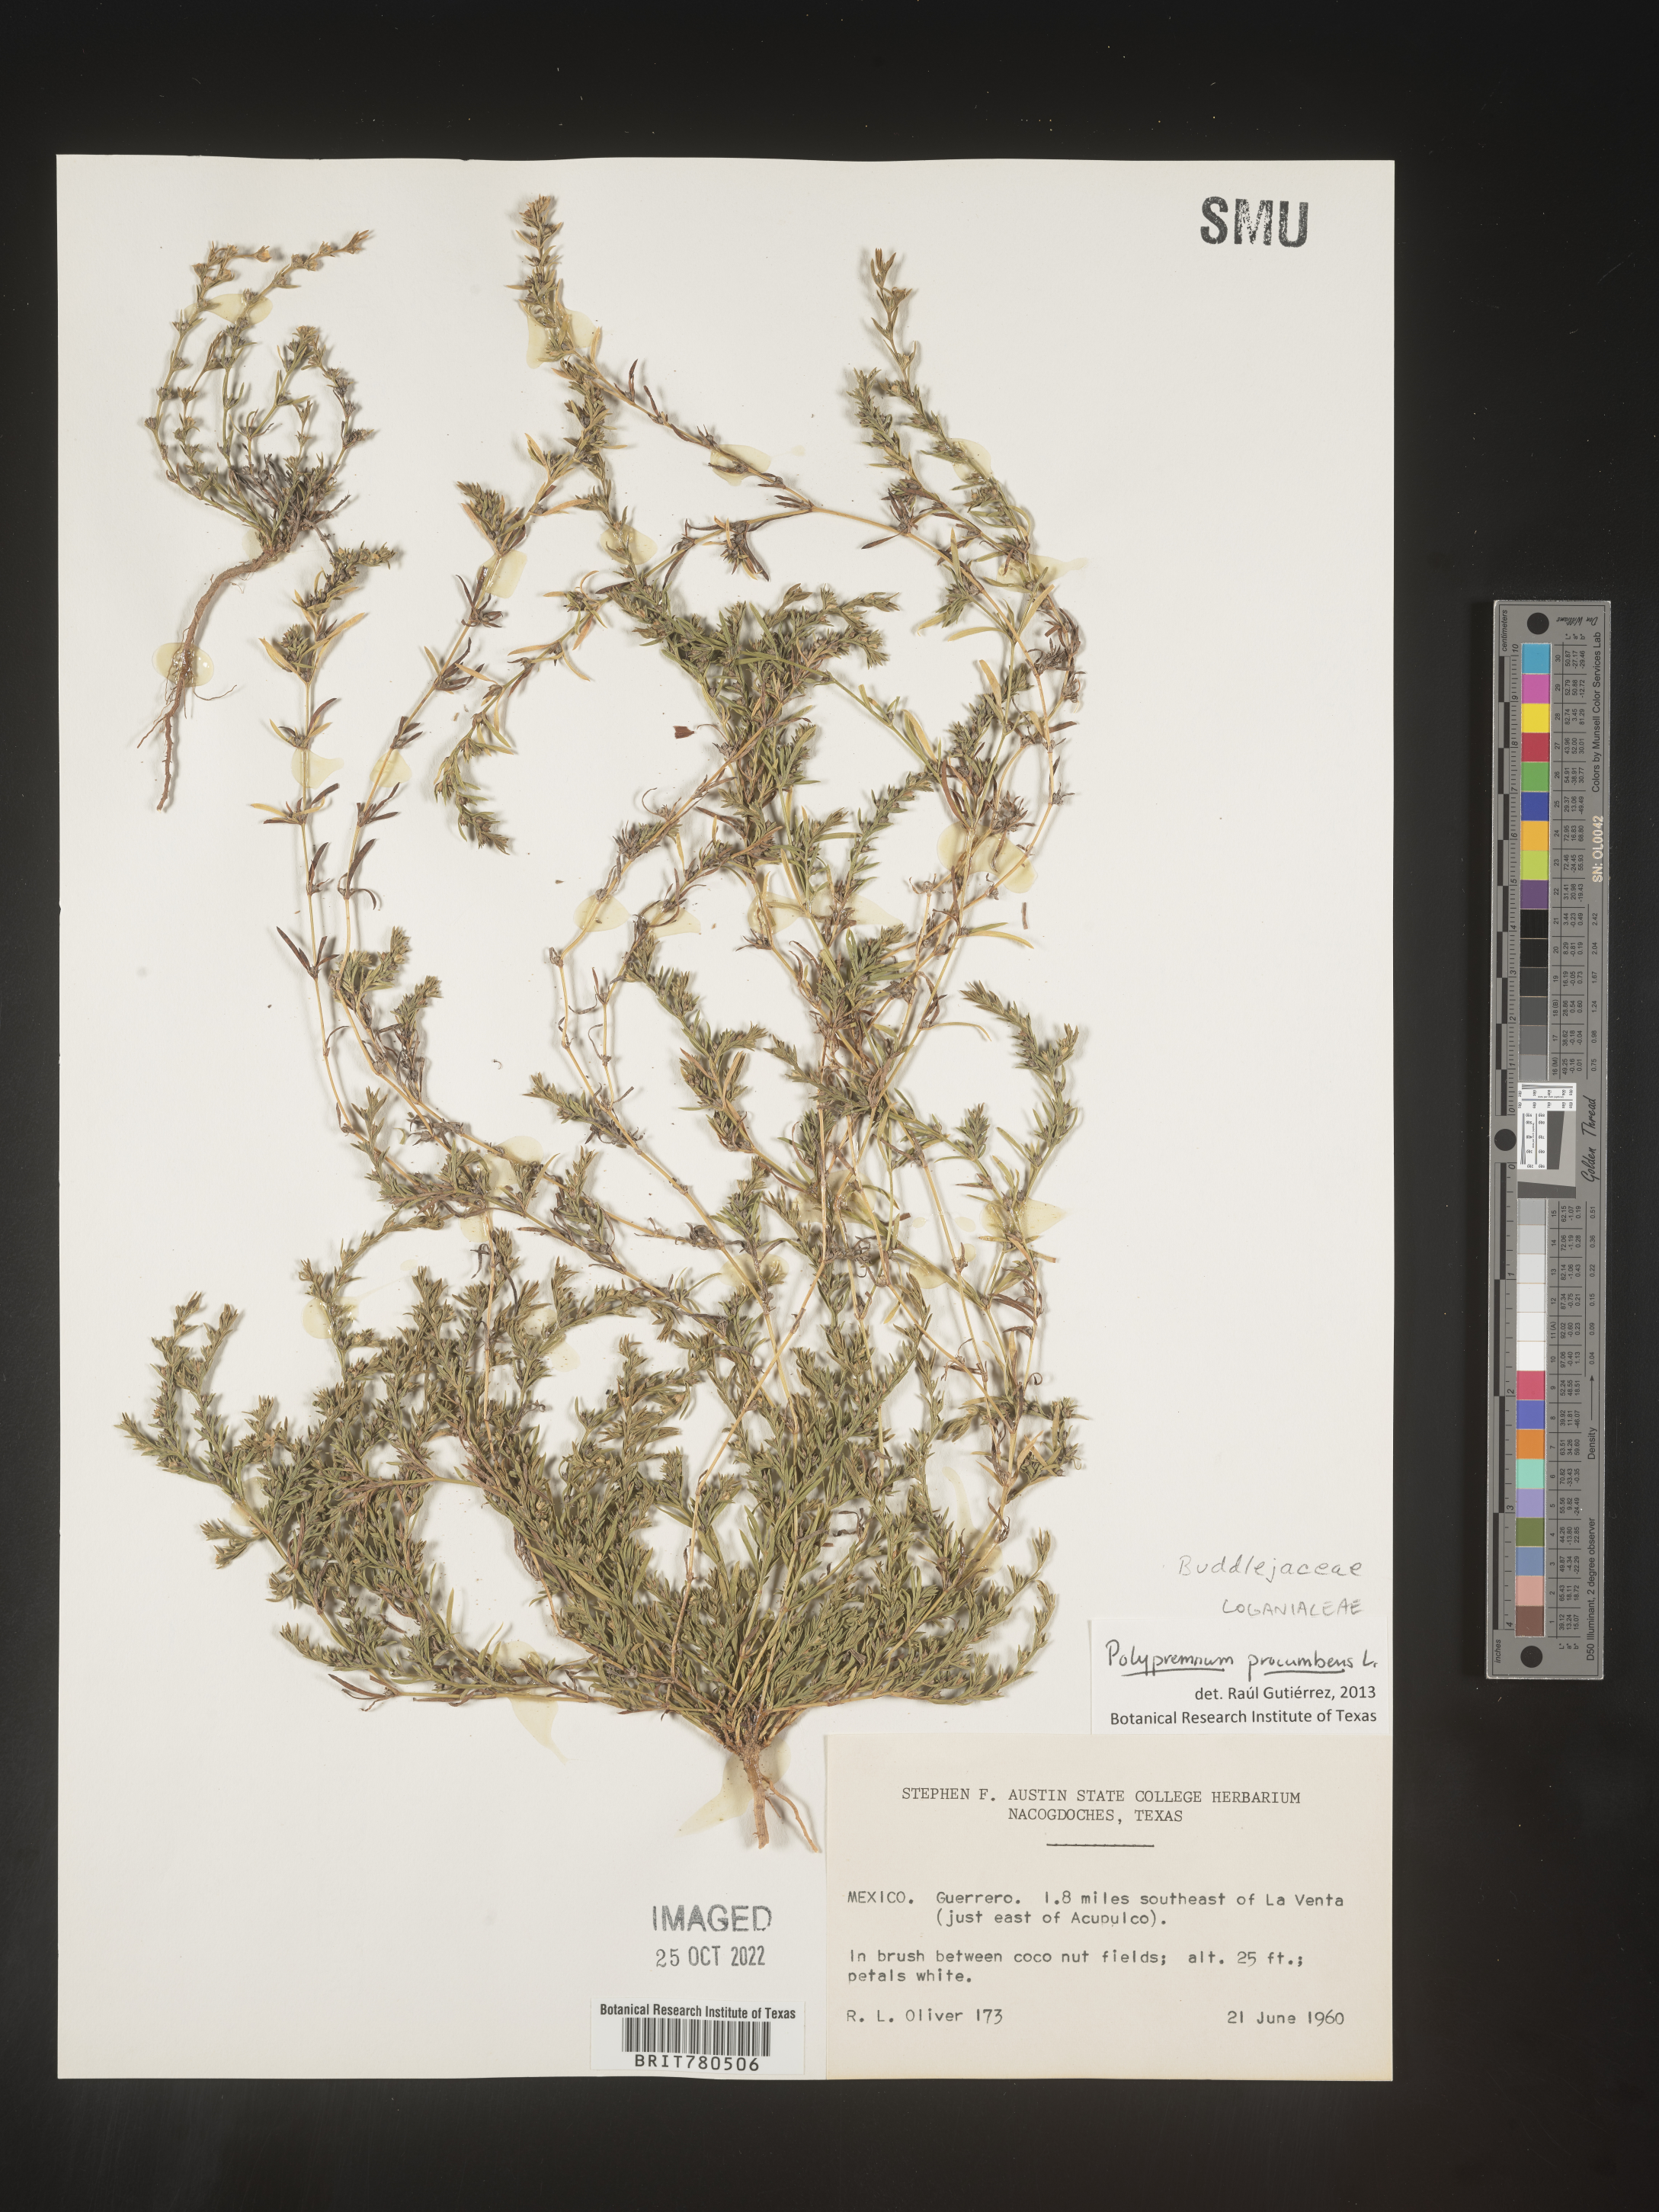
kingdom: Plantae
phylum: Tracheophyta
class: Magnoliopsida
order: Lamiales
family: Tetrachondraceae
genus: Polypremum
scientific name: Polypremum
